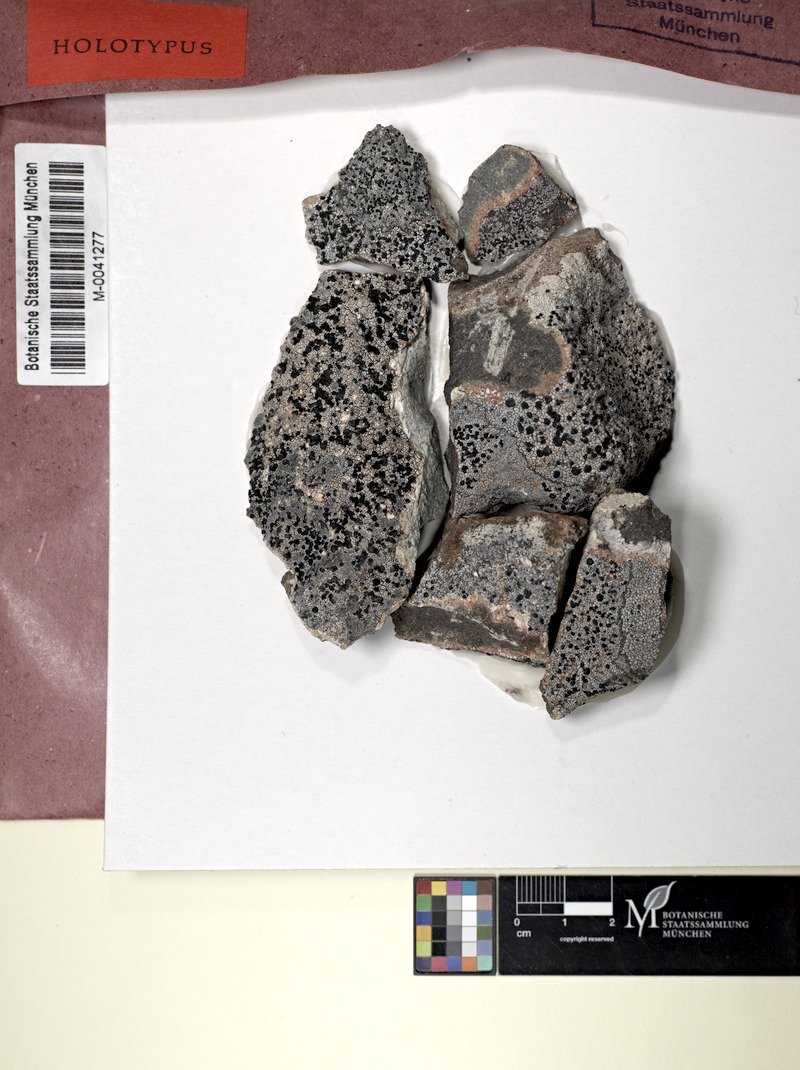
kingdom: Fungi
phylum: Ascomycota
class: Lecanoromycetes
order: Lecideales
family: Lecideaceae
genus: Lecidea
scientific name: Lecidea tessellata
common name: Tile lichen
